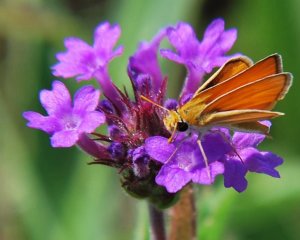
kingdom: Animalia
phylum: Arthropoda
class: Insecta
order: Lepidoptera
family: Hesperiidae
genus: Copaeodes
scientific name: Copaeodes minima
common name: Southern Skipperling
